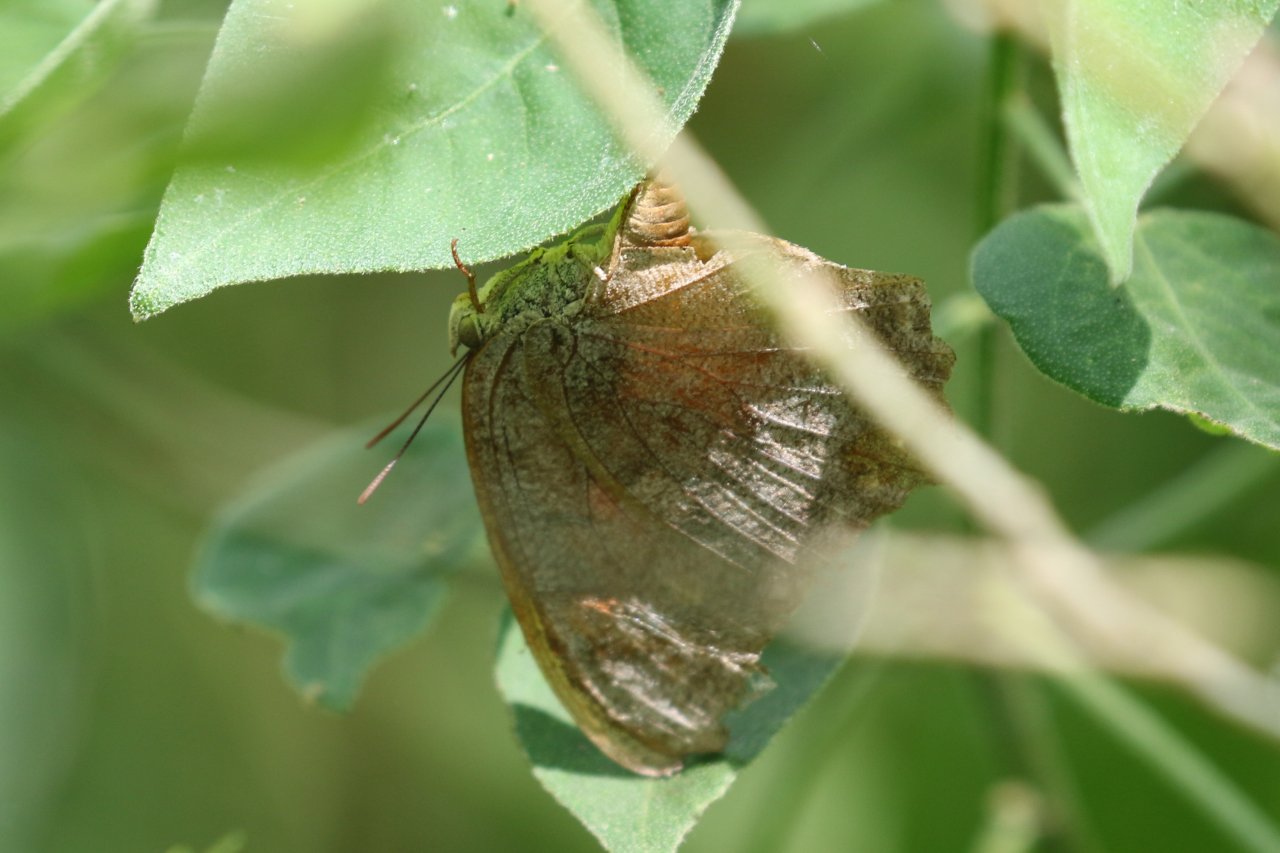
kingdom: Animalia
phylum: Arthropoda
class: Insecta
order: Lepidoptera
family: Nymphalidae
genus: Anaea
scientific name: Anaea aidea
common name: Tropical Leafwing
